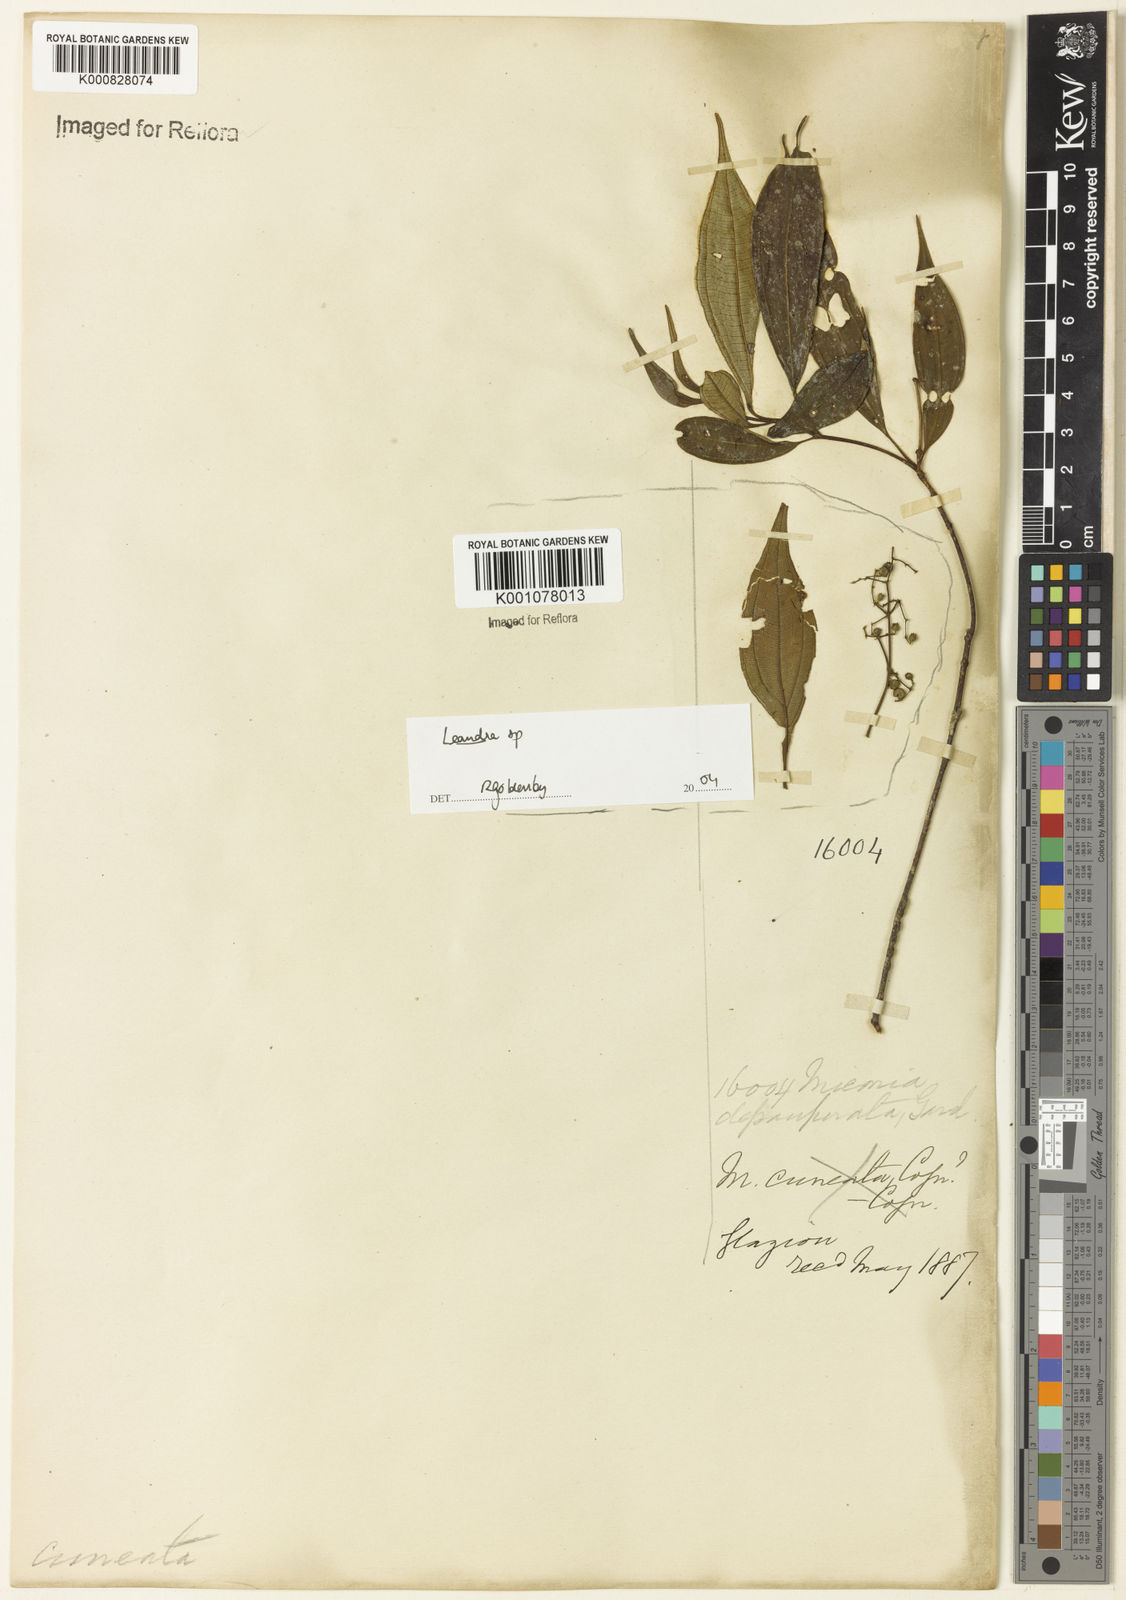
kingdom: Plantae
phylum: Tracheophyta
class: Magnoliopsida
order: Myrtales
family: Melastomataceae
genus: Miconia
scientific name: Miconia depauperata
